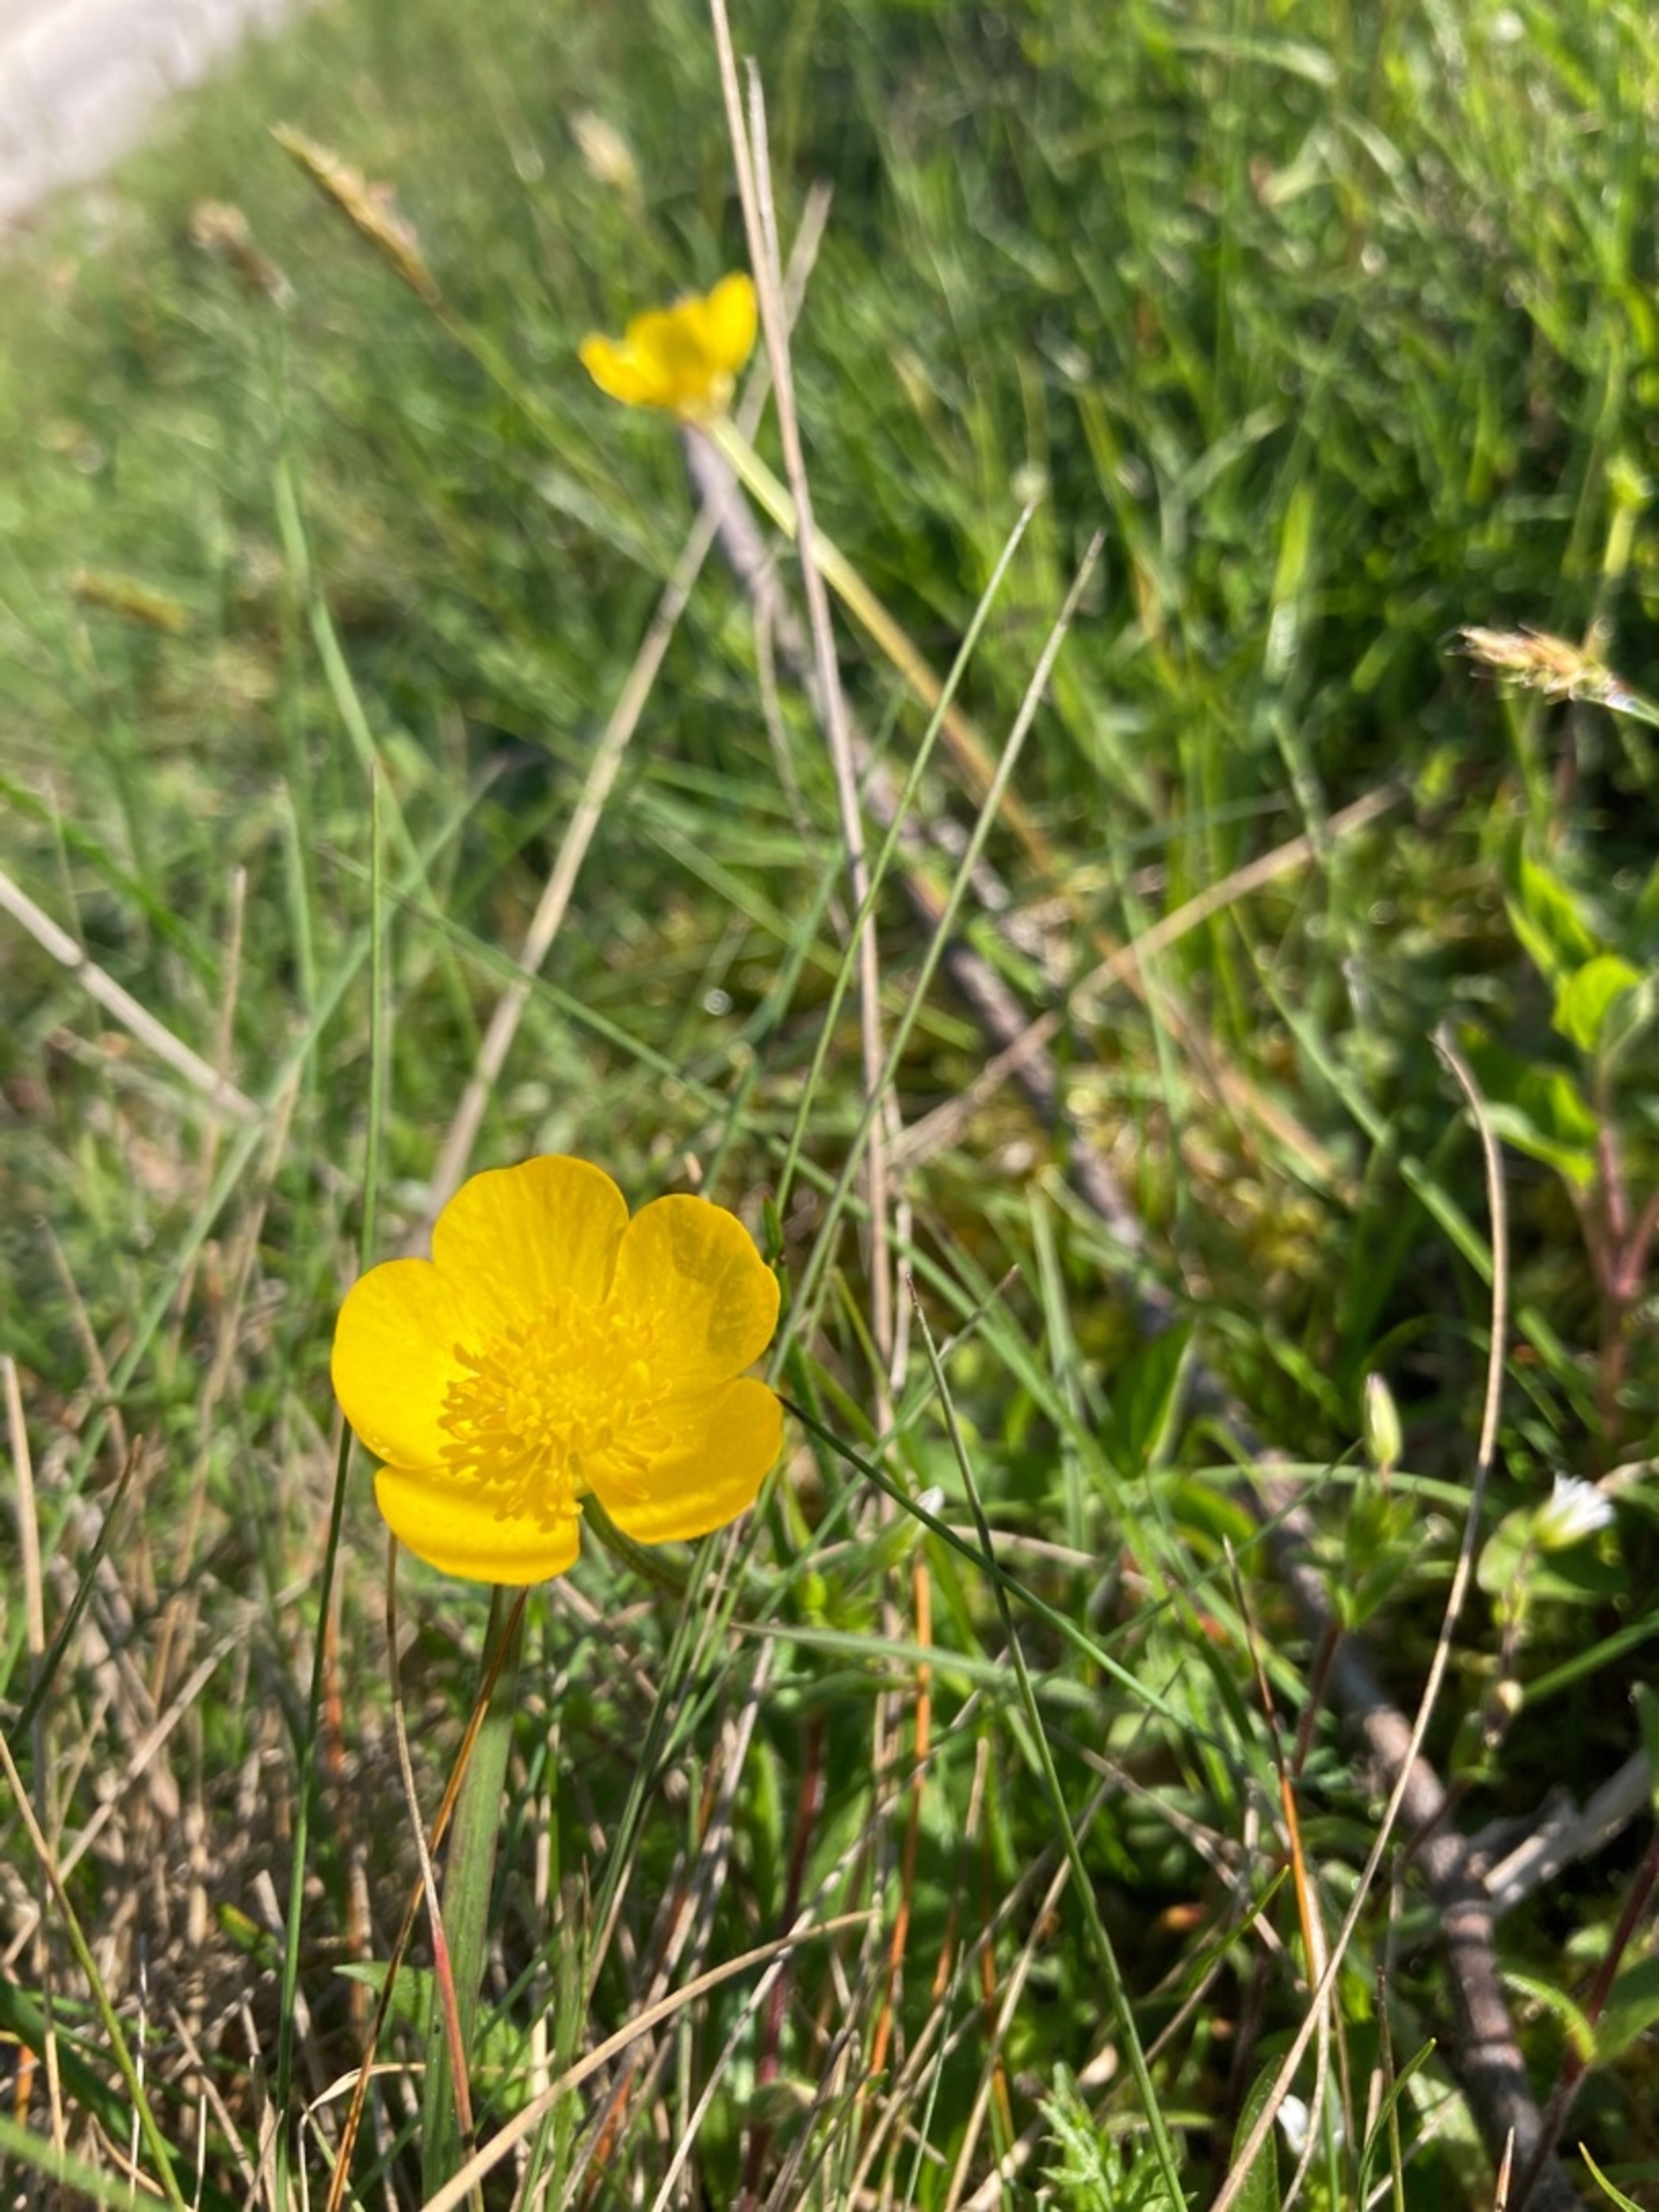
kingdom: Plantae
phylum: Tracheophyta
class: Magnoliopsida
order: Ranunculales
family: Ranunculaceae
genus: Ranunculus
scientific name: Ranunculus bulbosus
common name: Knold-ranunkel
